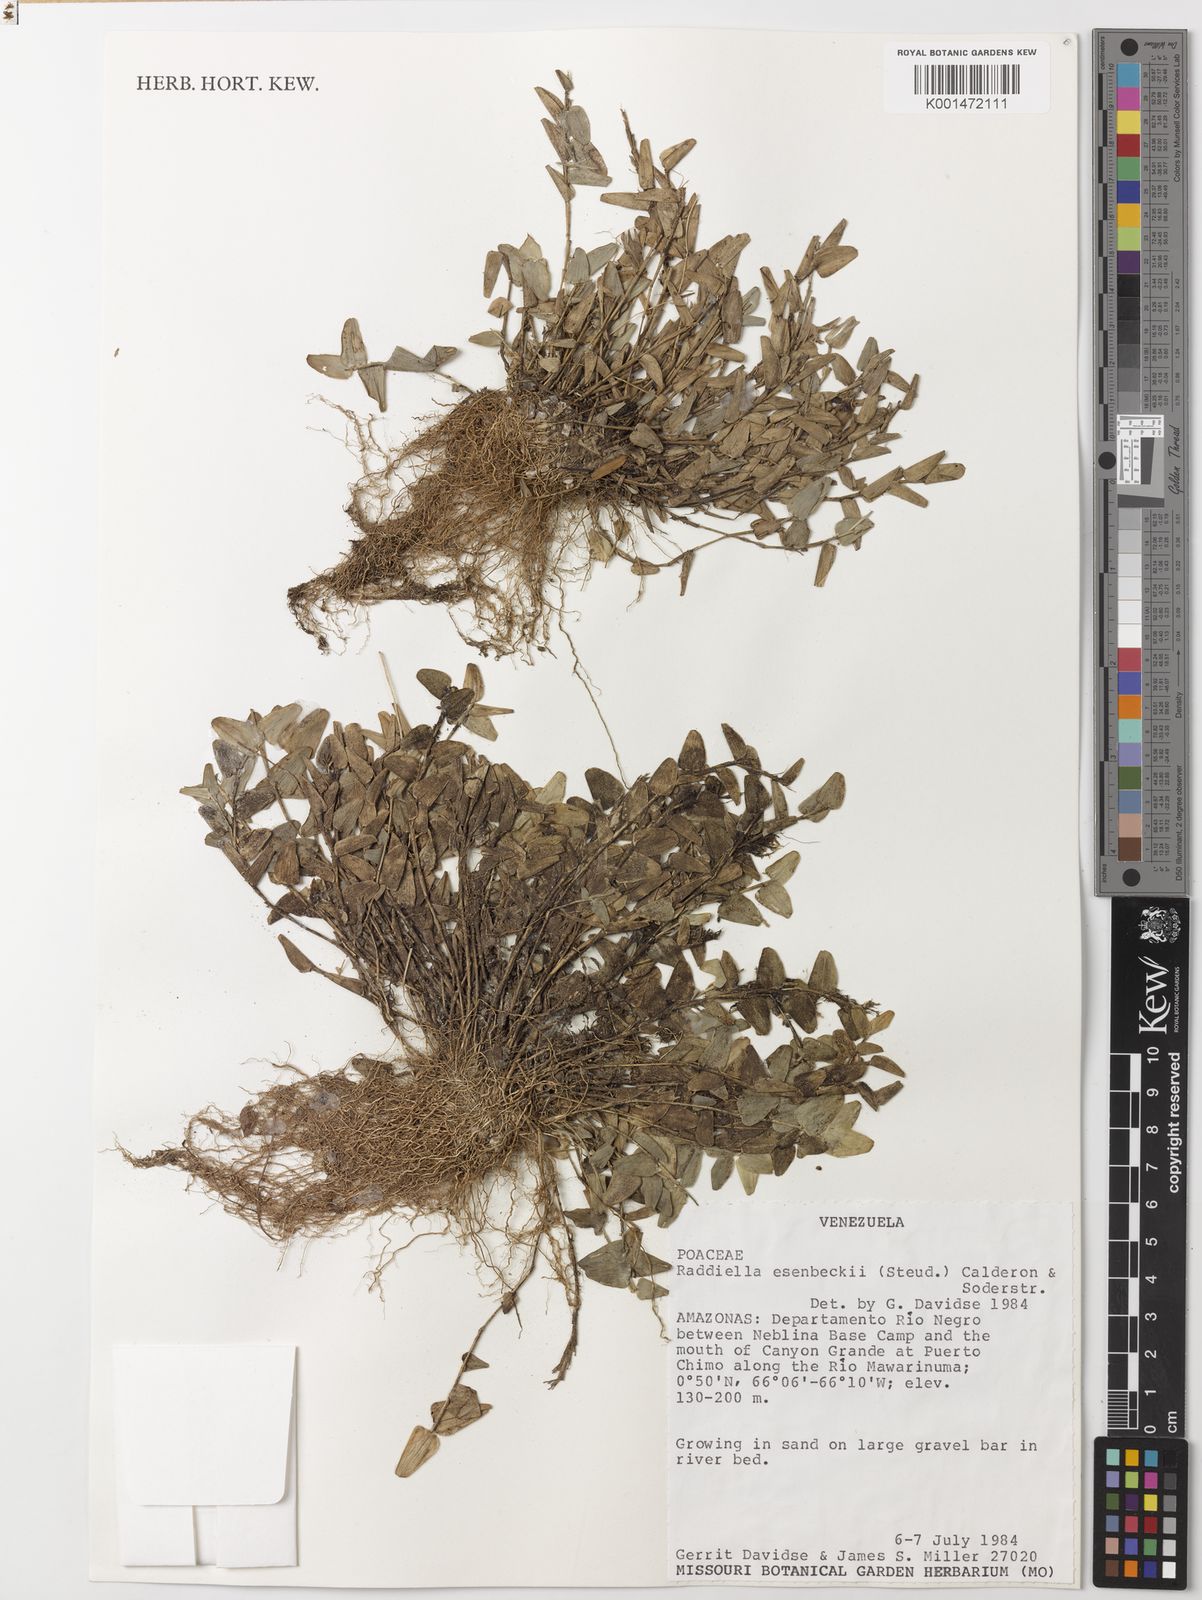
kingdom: Plantae
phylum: Tracheophyta
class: Liliopsida
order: Poales
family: Poaceae
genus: Raddiella
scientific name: Raddiella
